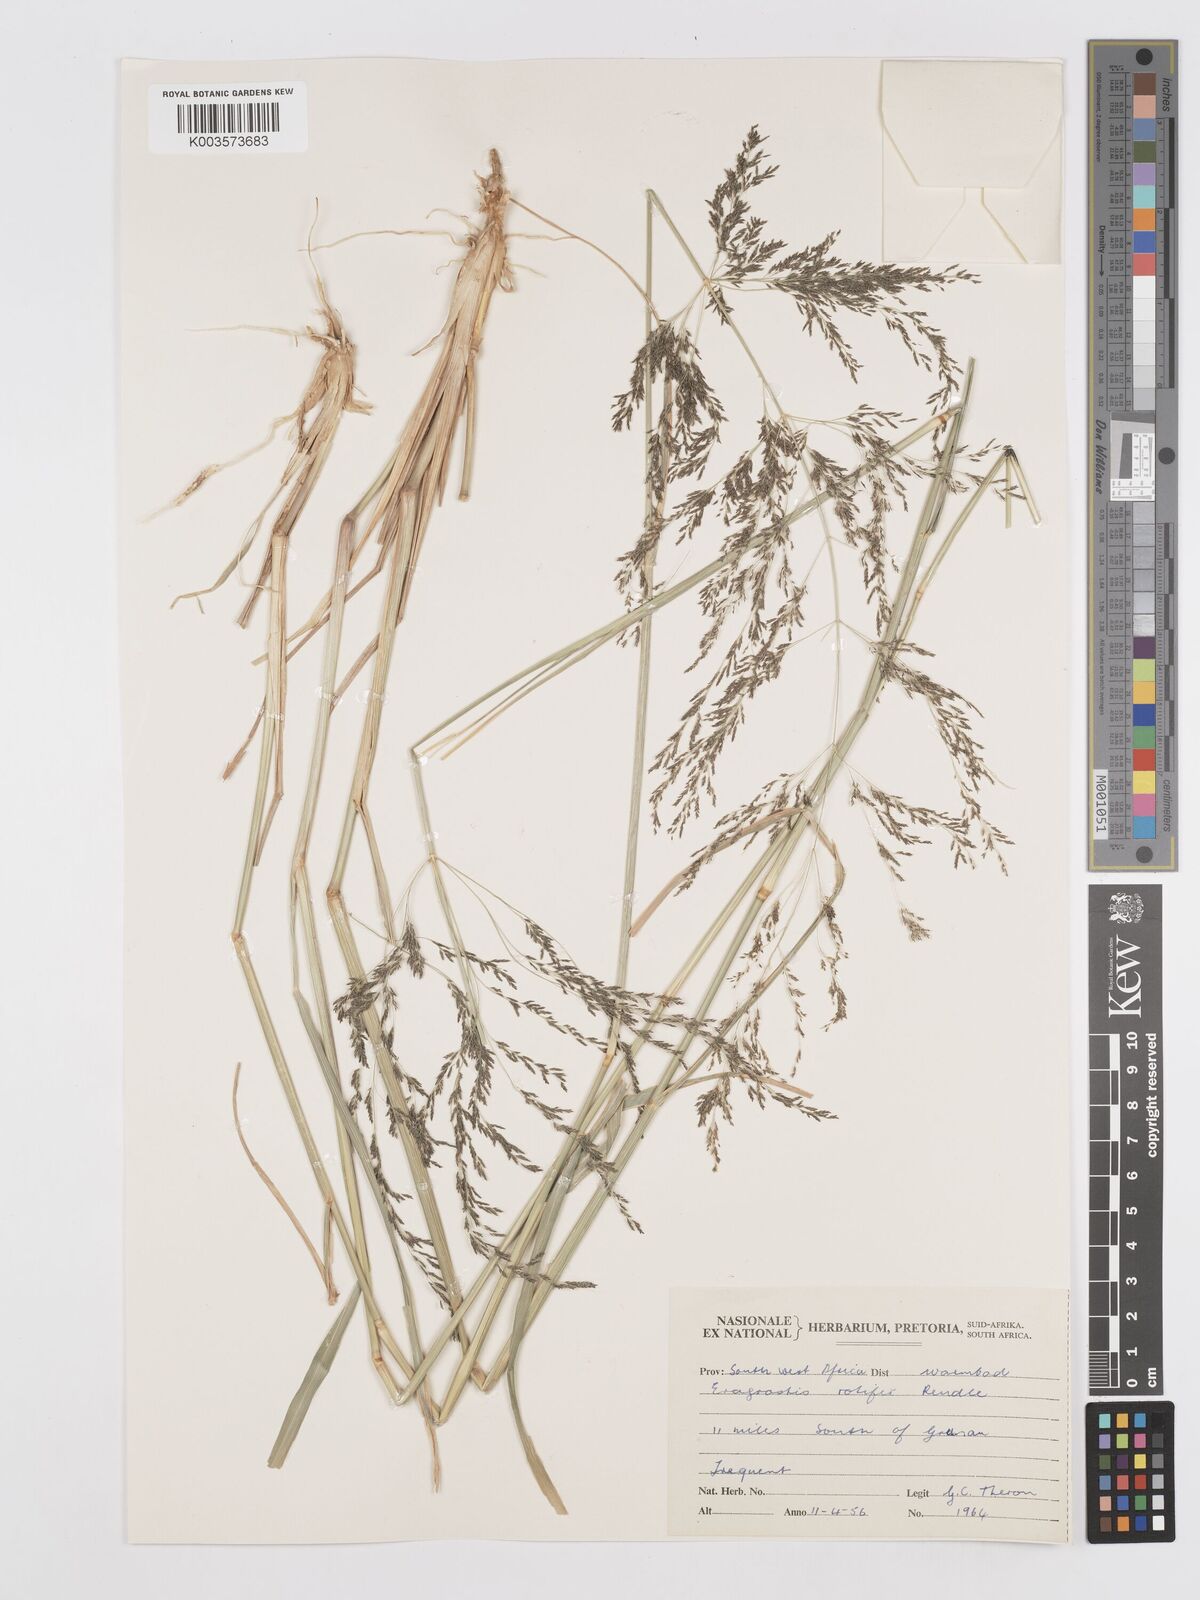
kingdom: Plantae
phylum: Tracheophyta
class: Liliopsida
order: Poales
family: Poaceae
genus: Eragrostis
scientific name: Eragrostis rotifer
